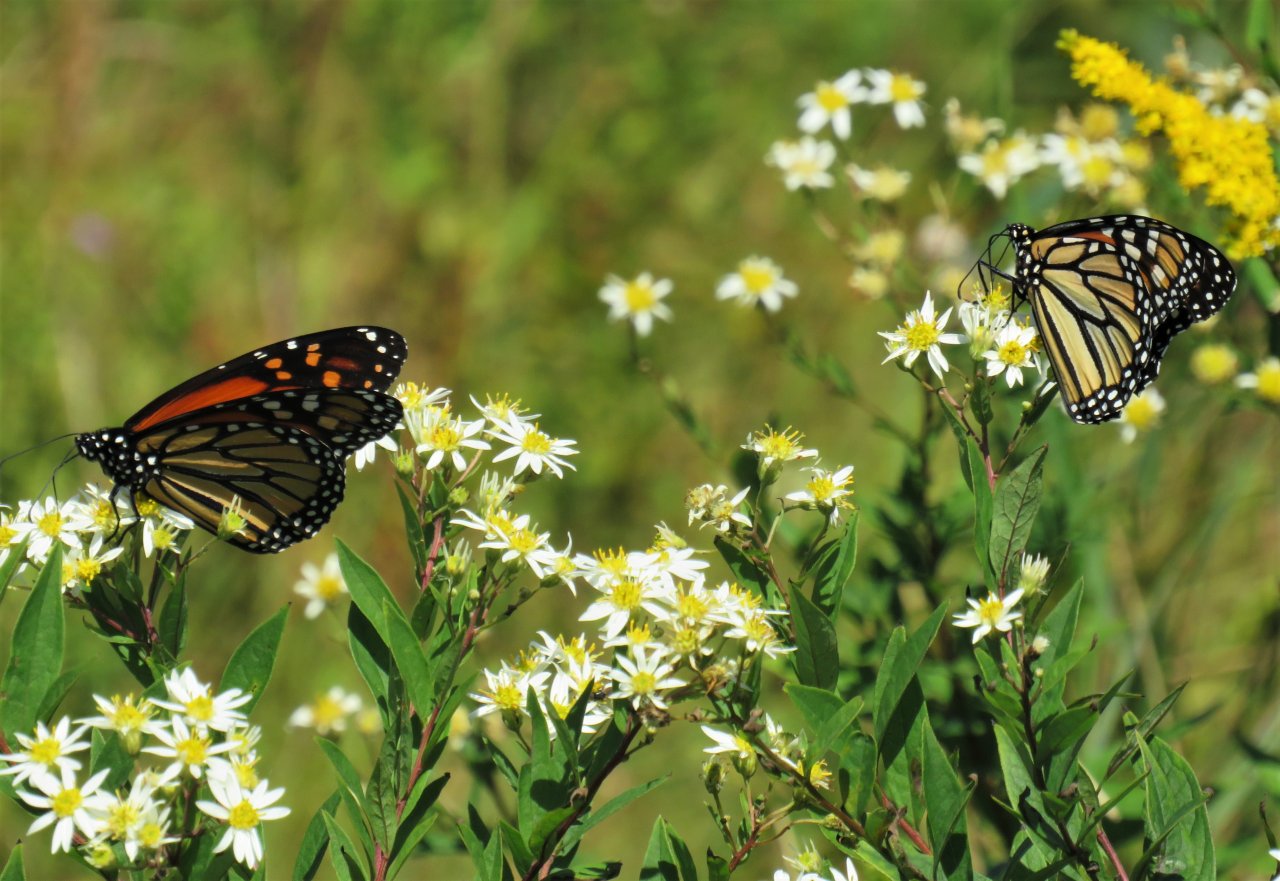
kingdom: Animalia
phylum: Arthropoda
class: Insecta
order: Lepidoptera
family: Nymphalidae
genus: Danaus
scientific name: Danaus plexippus
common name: Monarch
